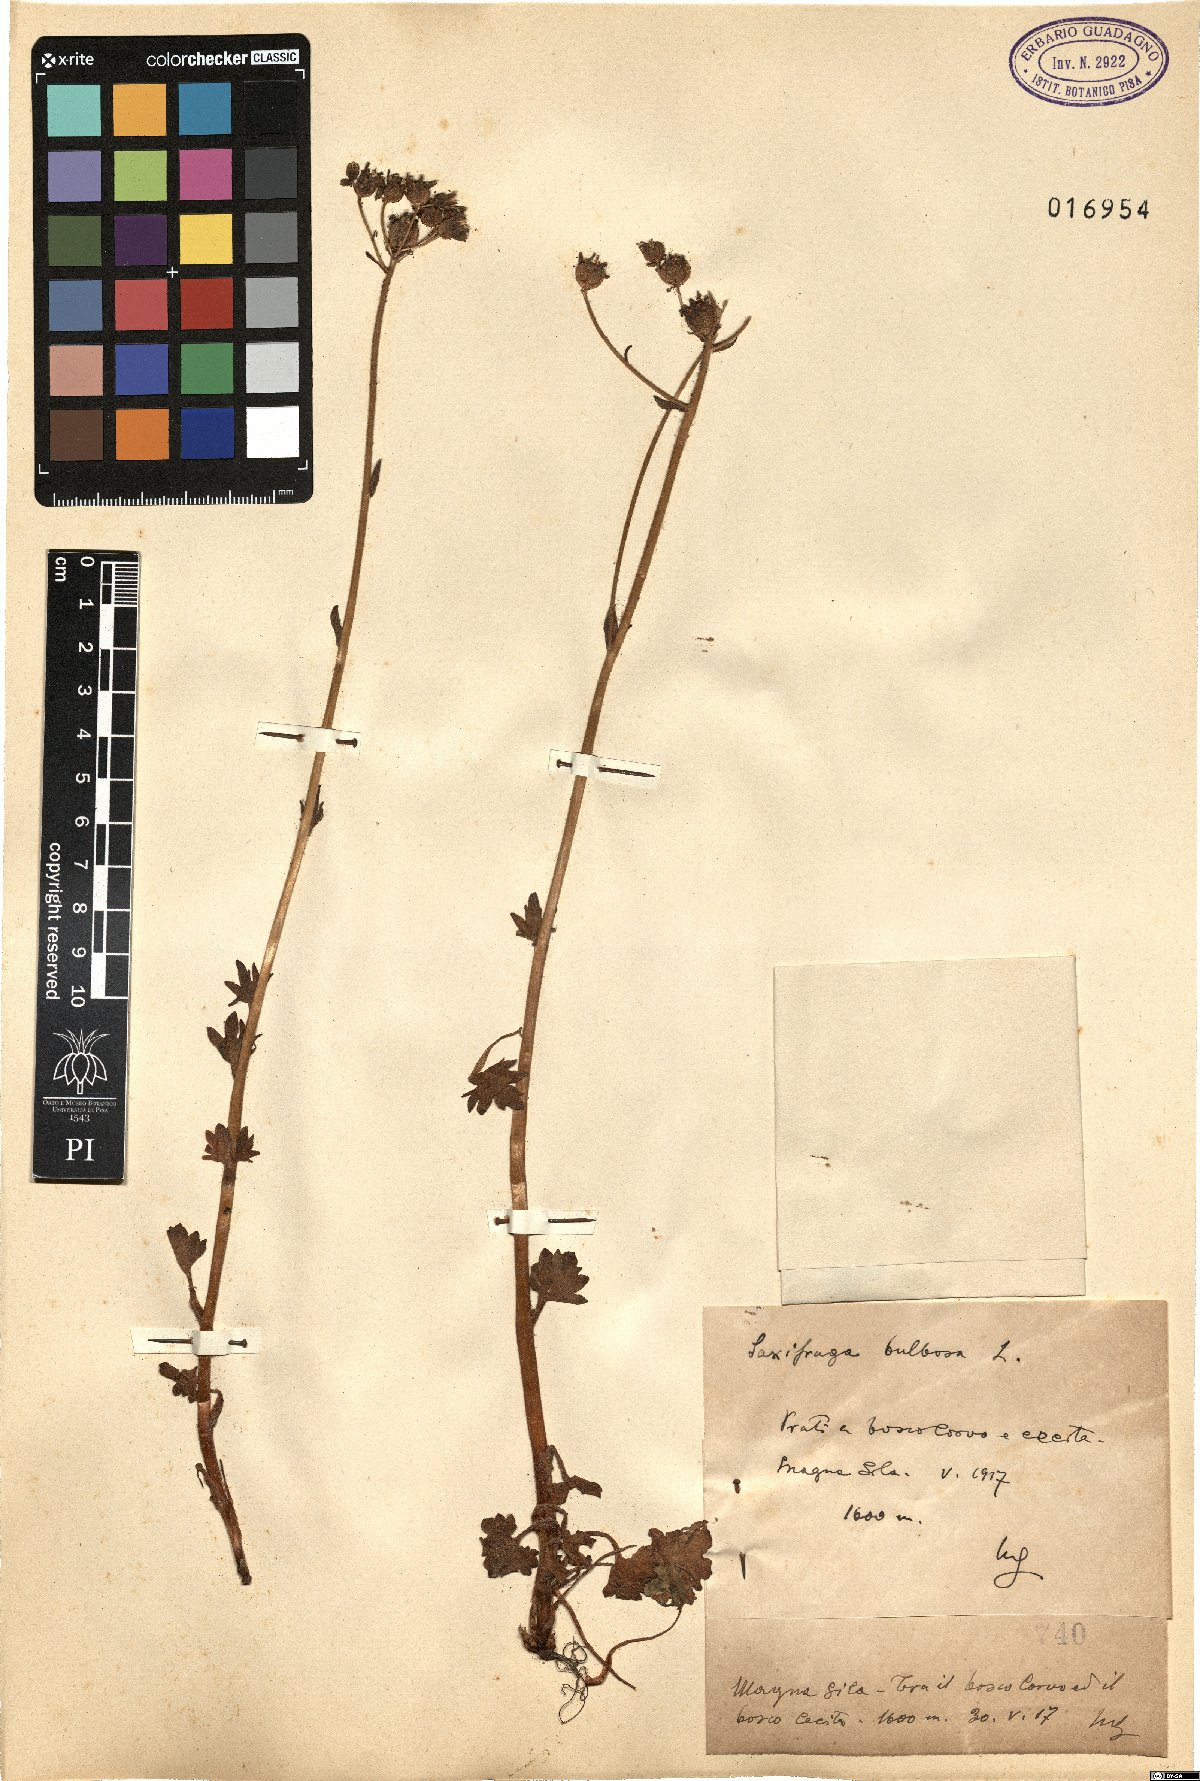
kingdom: Plantae
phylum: Tracheophyta
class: Magnoliopsida
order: Saxifragales
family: Saxifragaceae
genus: Saxifraga
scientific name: Saxifraga bulbifera
